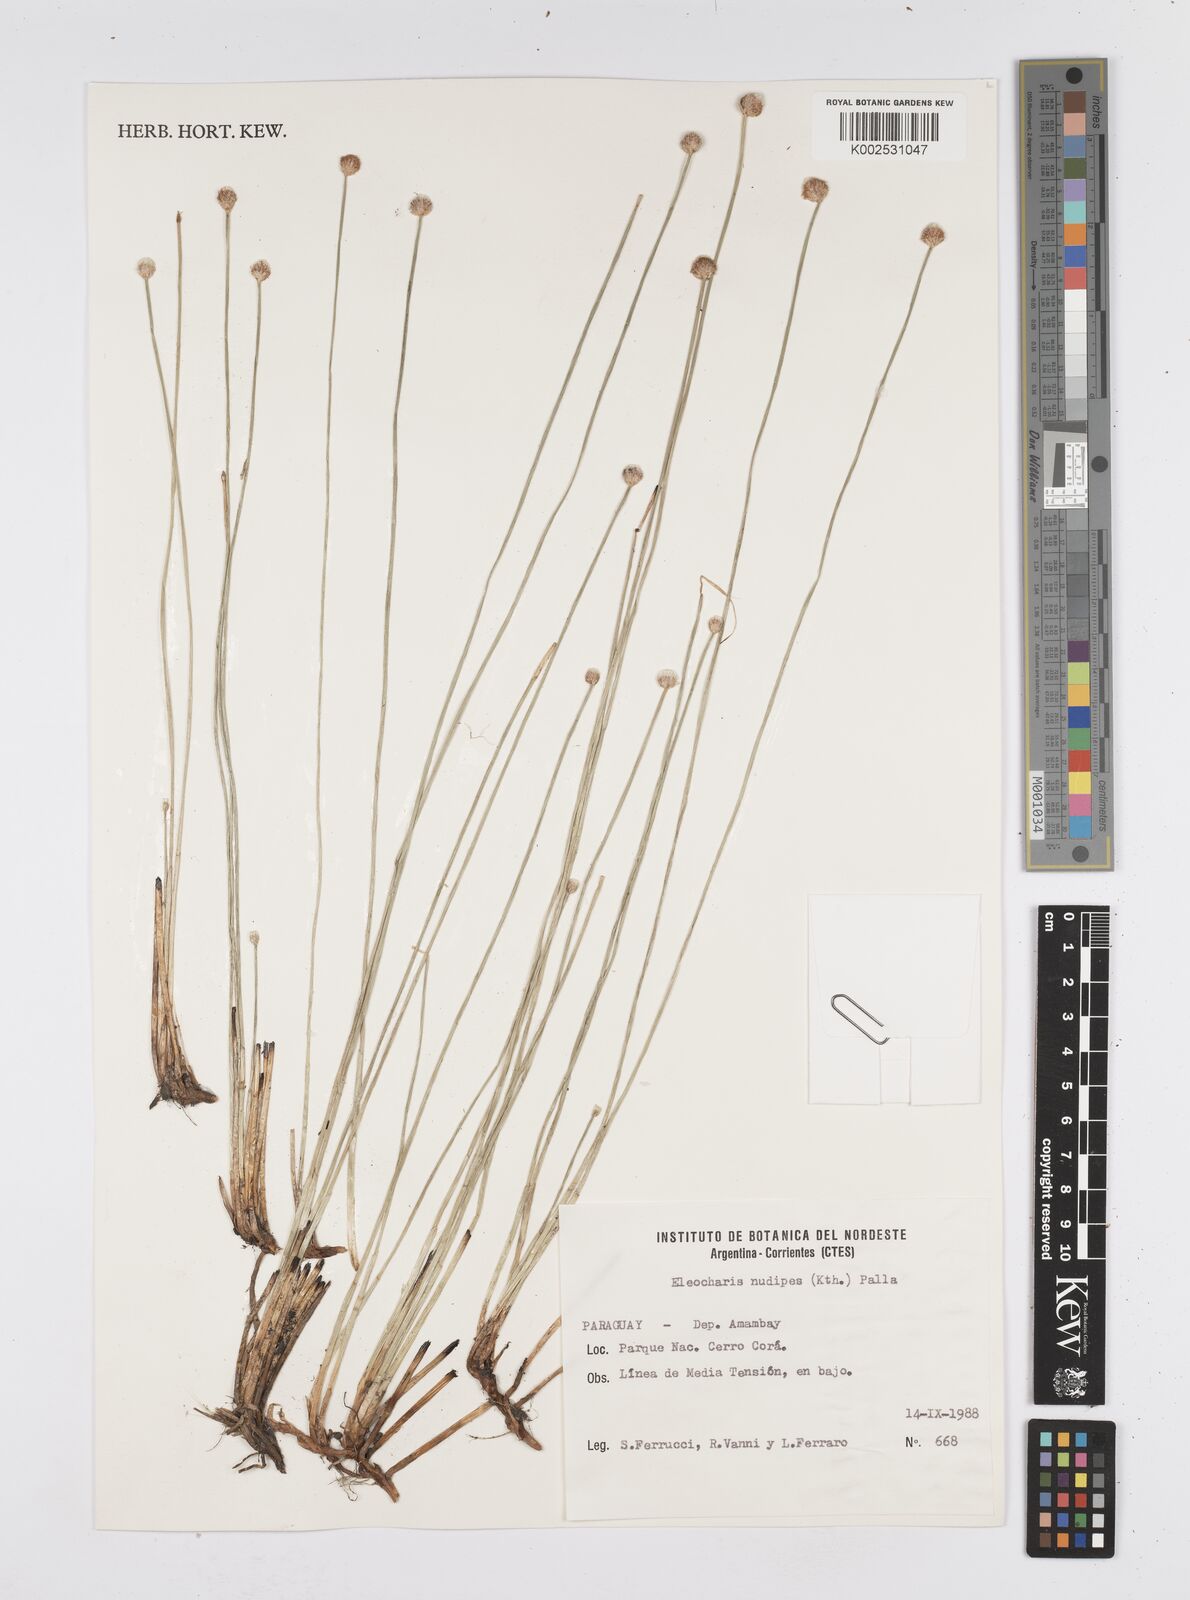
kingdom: Plantae
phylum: Tracheophyta
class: Liliopsida
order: Poales
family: Cyperaceae
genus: Eleocharis
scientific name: Eleocharis nudipes
